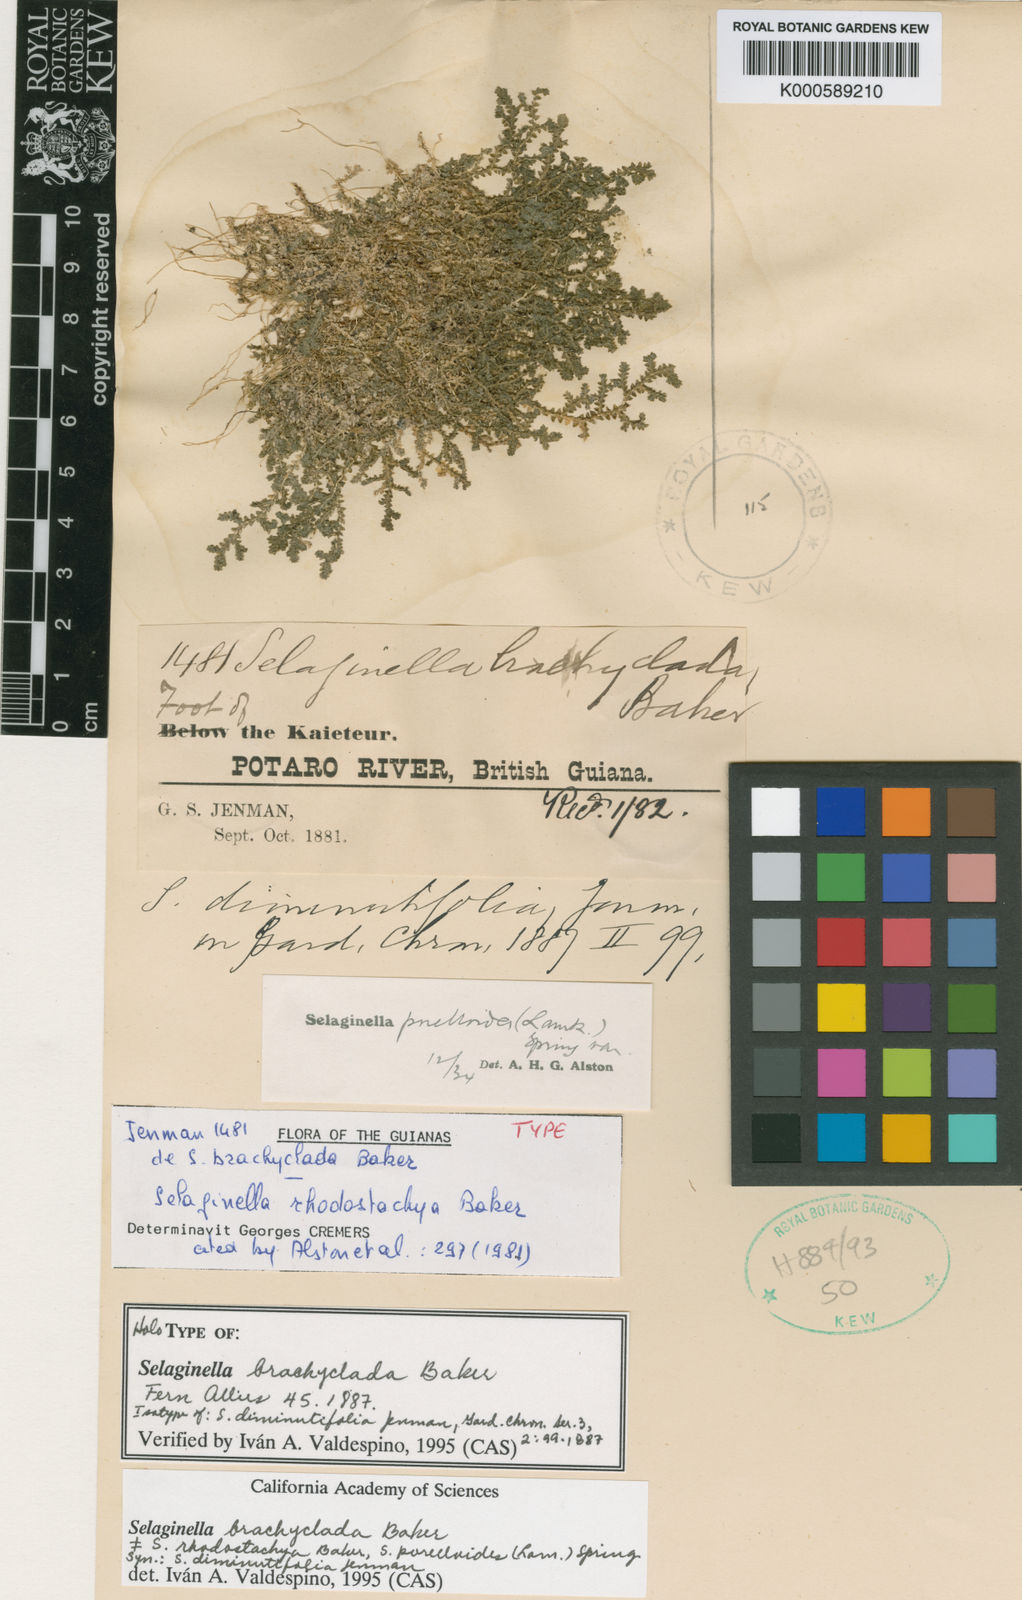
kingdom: Plantae
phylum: Tracheophyta
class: Lycopodiopsida
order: Selaginellales
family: Selaginellaceae
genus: Selaginella
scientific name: Selaginella porelloides
